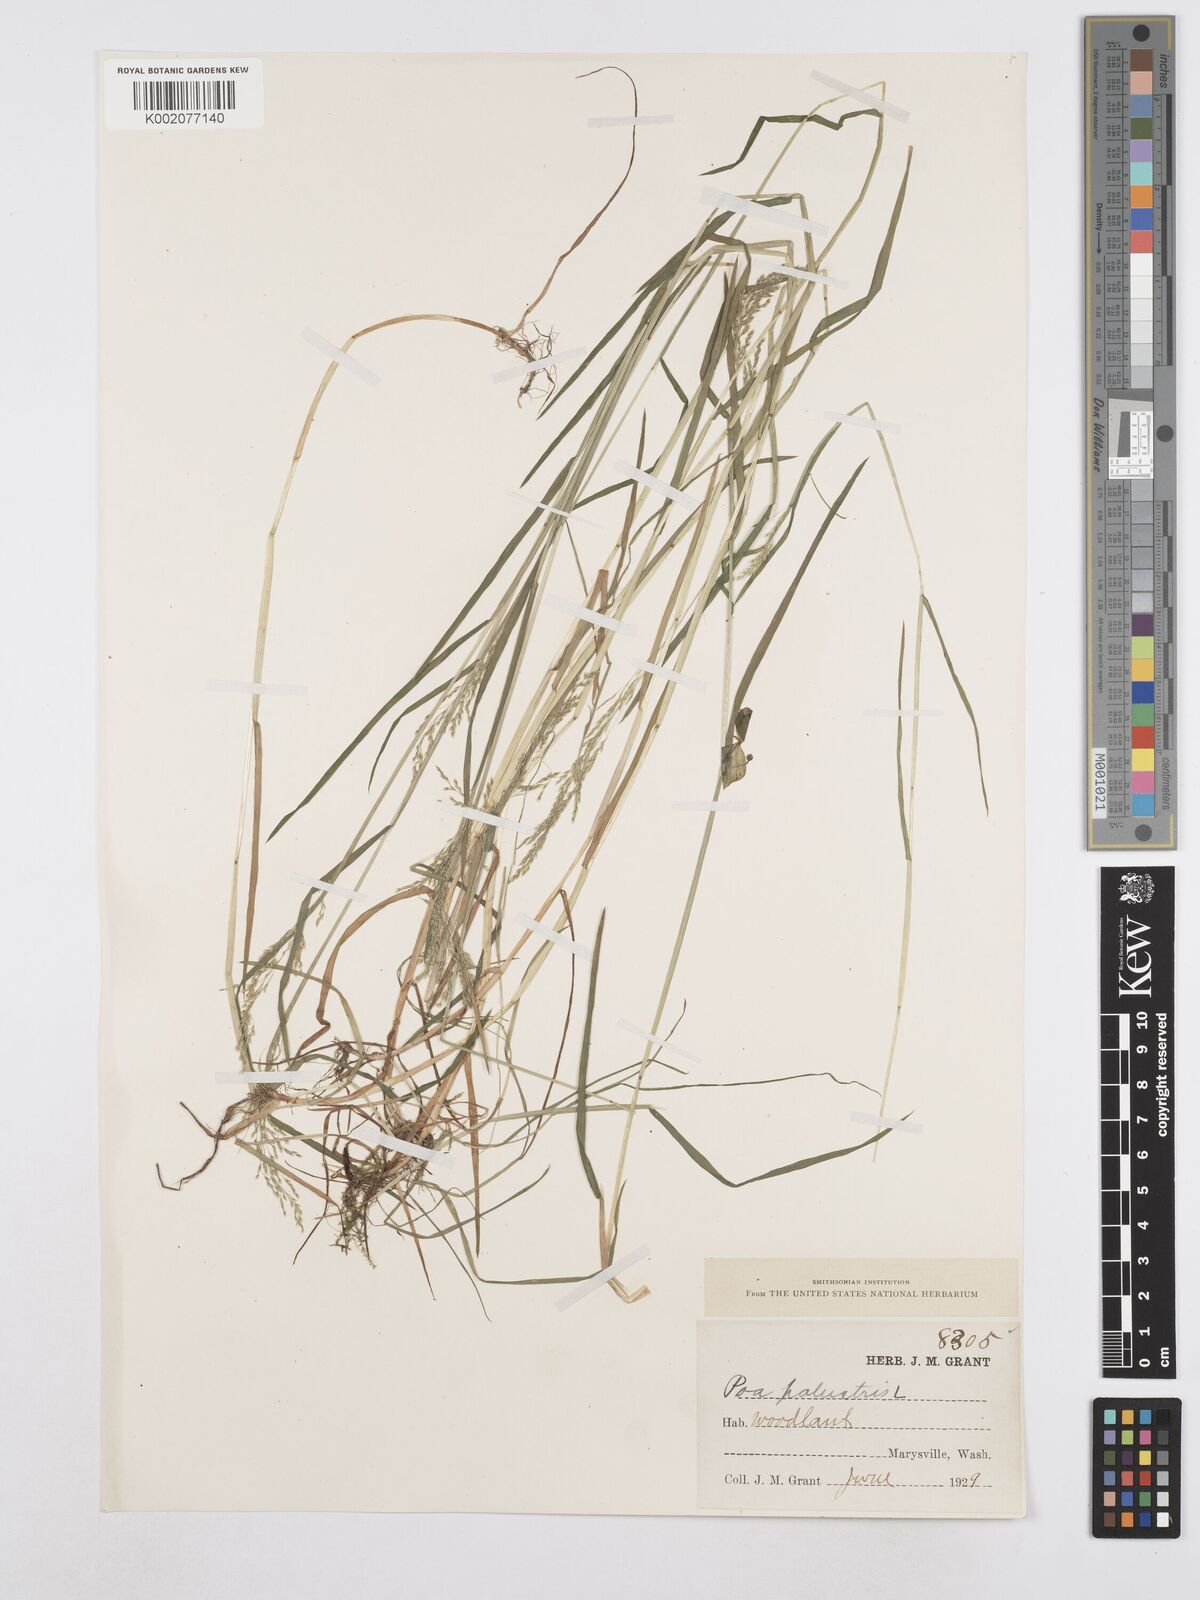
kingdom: Plantae
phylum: Tracheophyta
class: Liliopsida
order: Poales
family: Poaceae
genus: Poa
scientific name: Poa palustris
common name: Swamp meadow-grass
